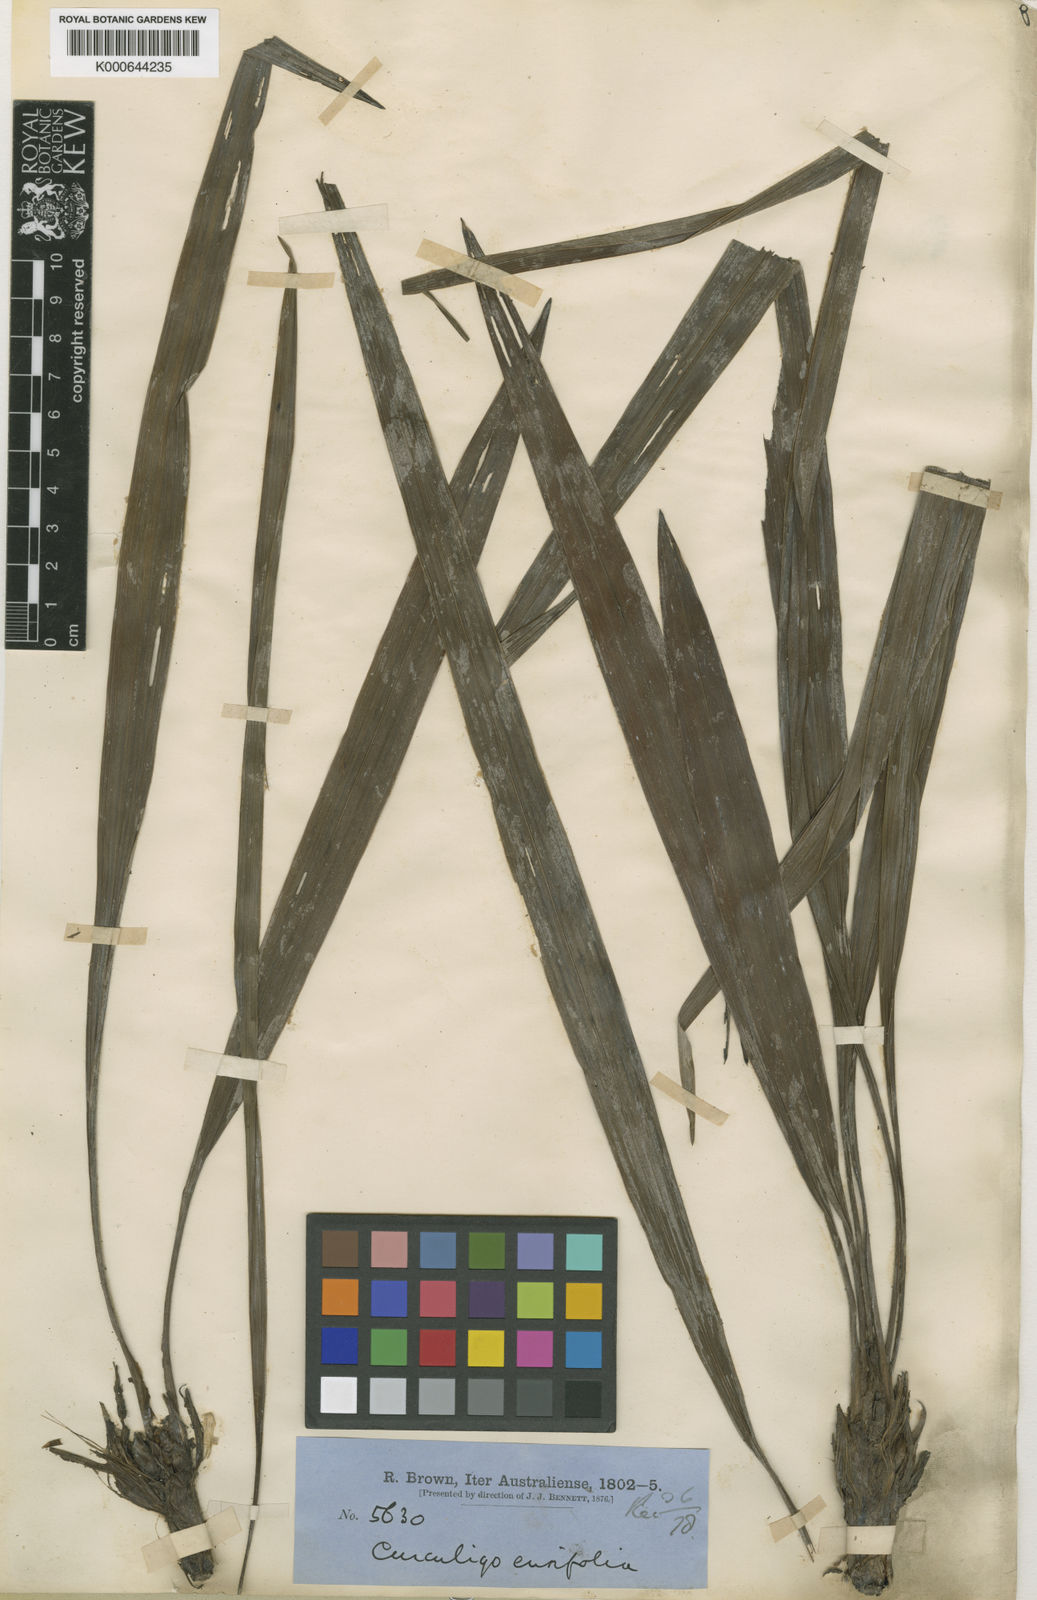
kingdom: Plantae
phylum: Tracheophyta
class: Liliopsida
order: Asparagales
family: Hypoxidaceae
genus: Curculigo
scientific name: Curculigo orchioides
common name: Golden eye-grass
